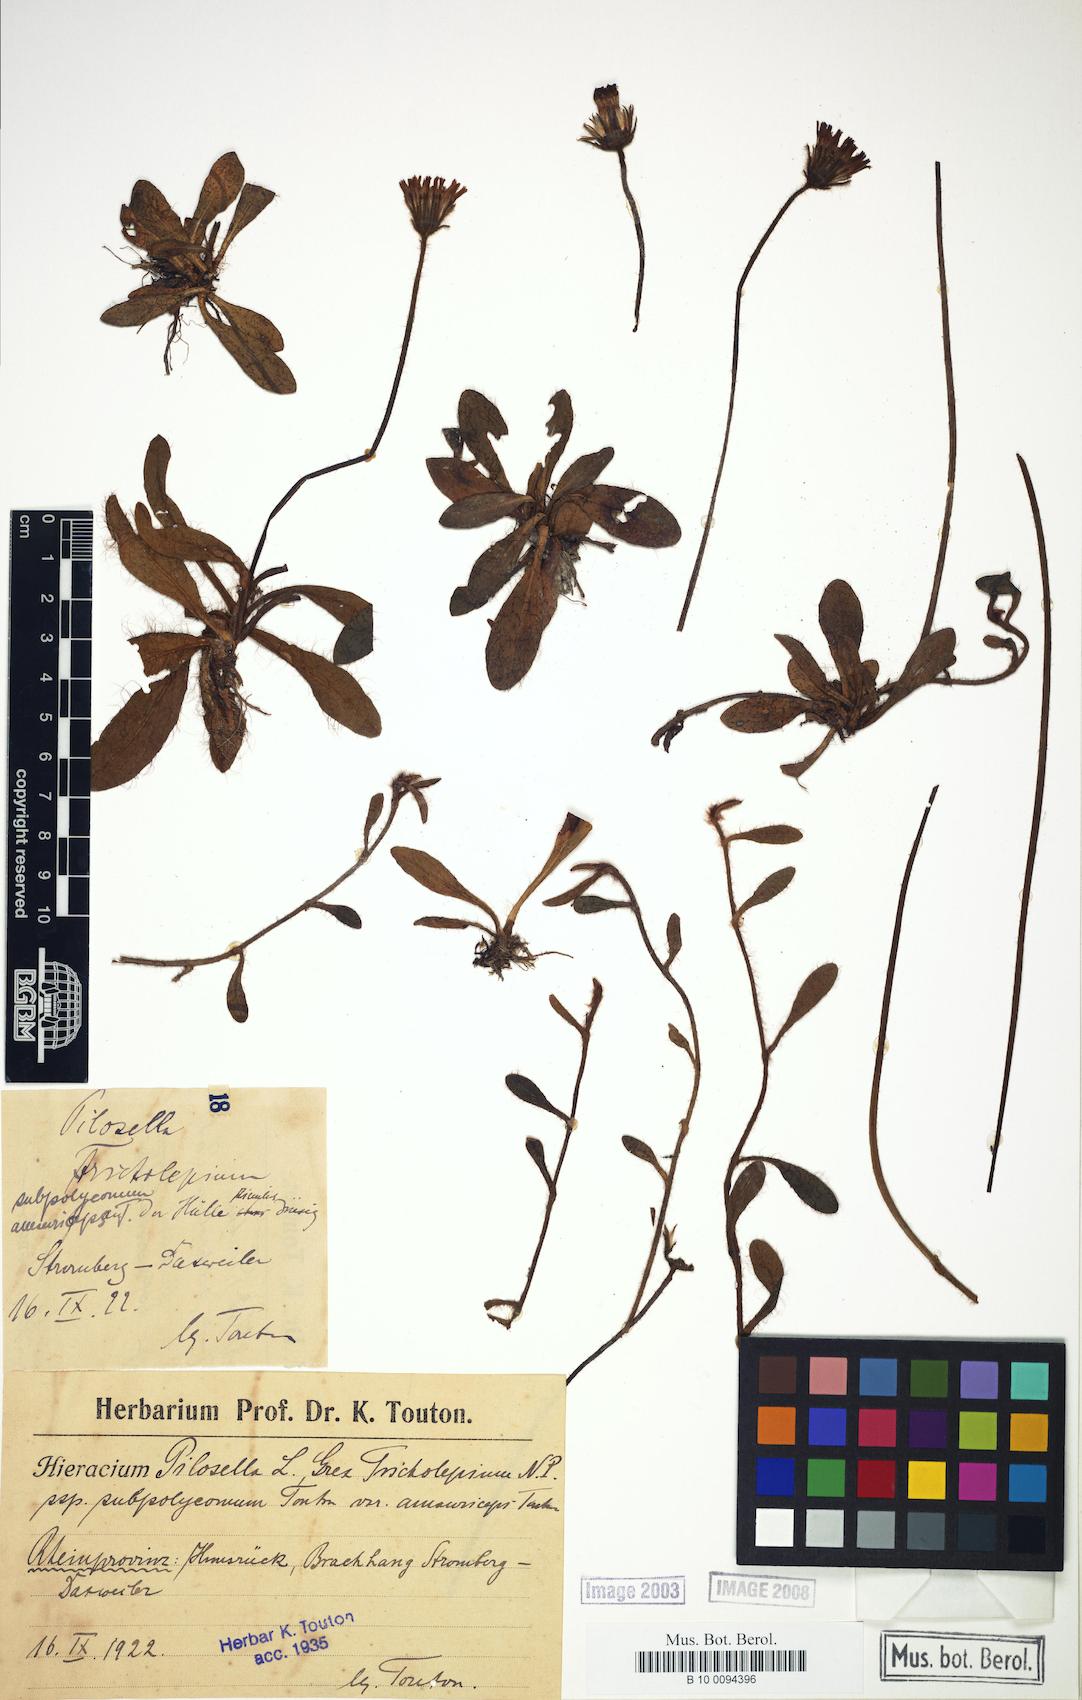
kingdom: Plantae
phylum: Tracheophyta
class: Magnoliopsida
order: Asterales
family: Asteraceae
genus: Pilosella
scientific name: Pilosella officinarum
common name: Mouse-ear hawkweed
